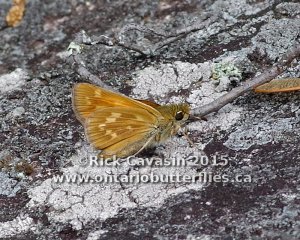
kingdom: Animalia
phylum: Arthropoda
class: Insecta
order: Lepidoptera
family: Hesperiidae
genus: Hesperia
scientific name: Hesperia sassacus
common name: Sassacus Skipper
